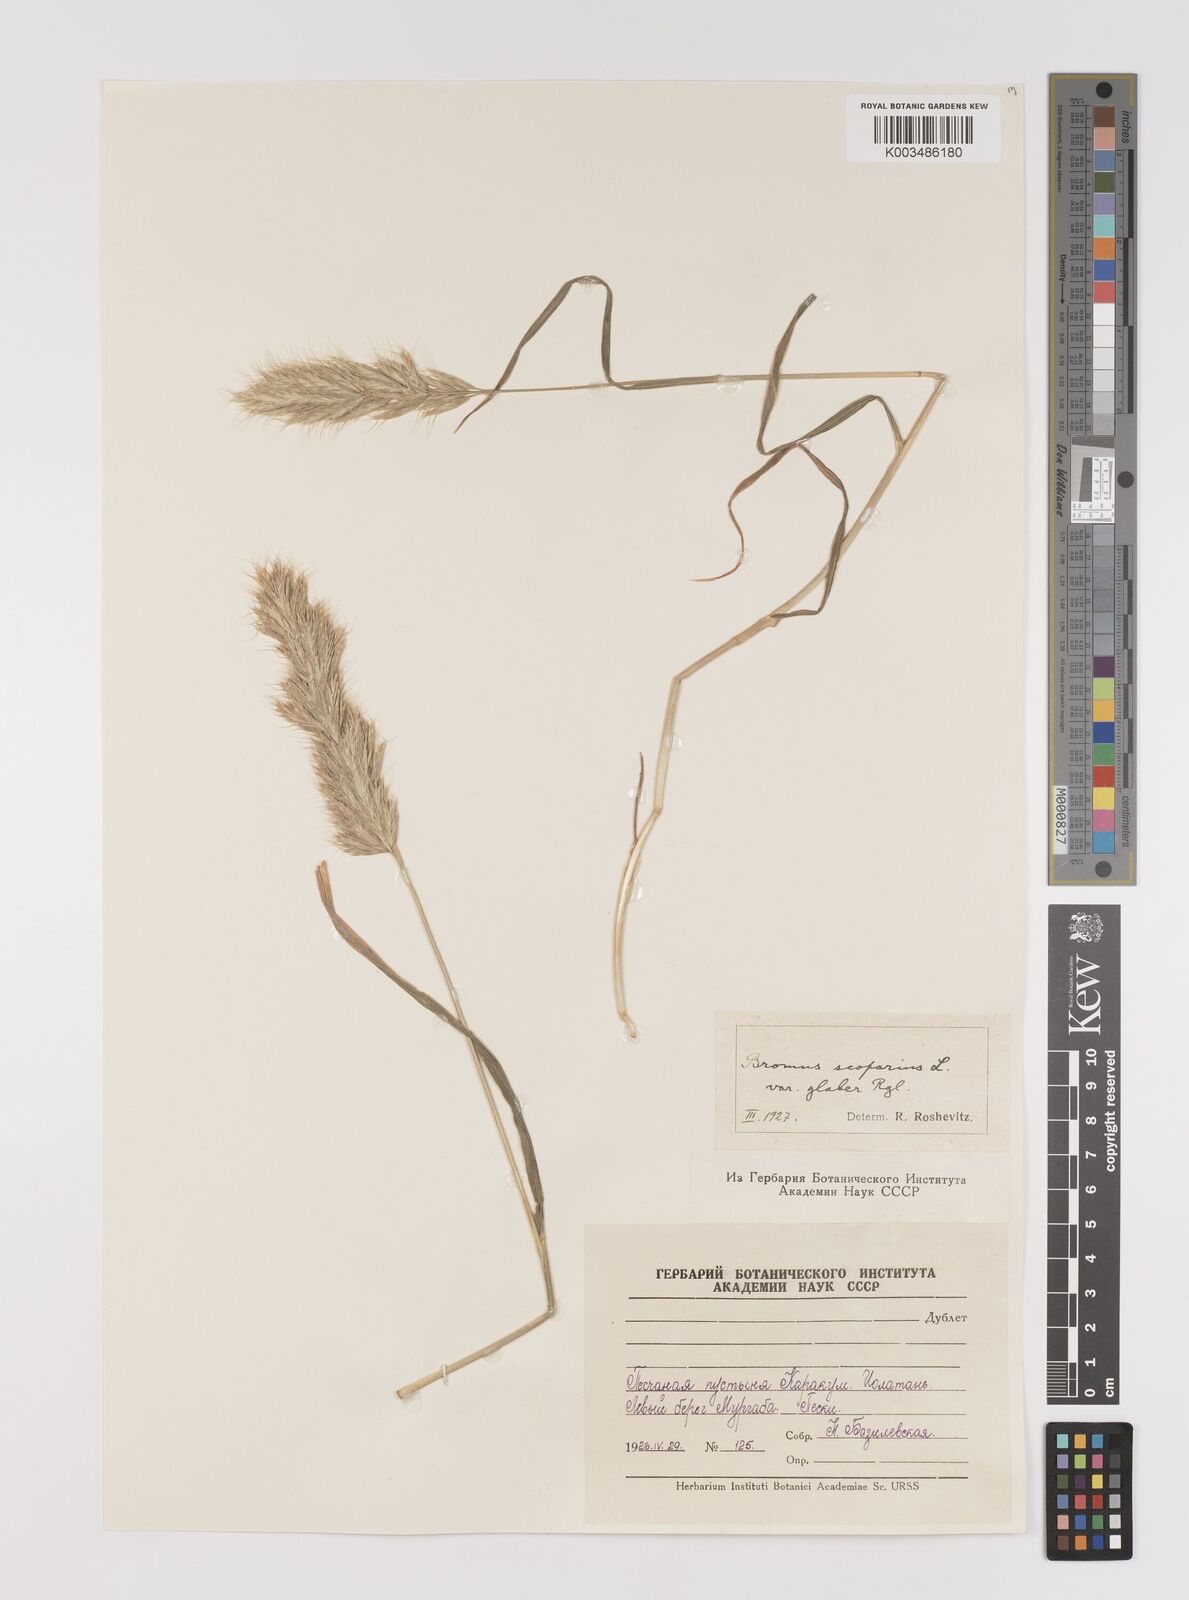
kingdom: Plantae
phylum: Tracheophyta
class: Liliopsida
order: Poales
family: Poaceae
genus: Bromus
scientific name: Bromus scoparius
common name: Broom brome
